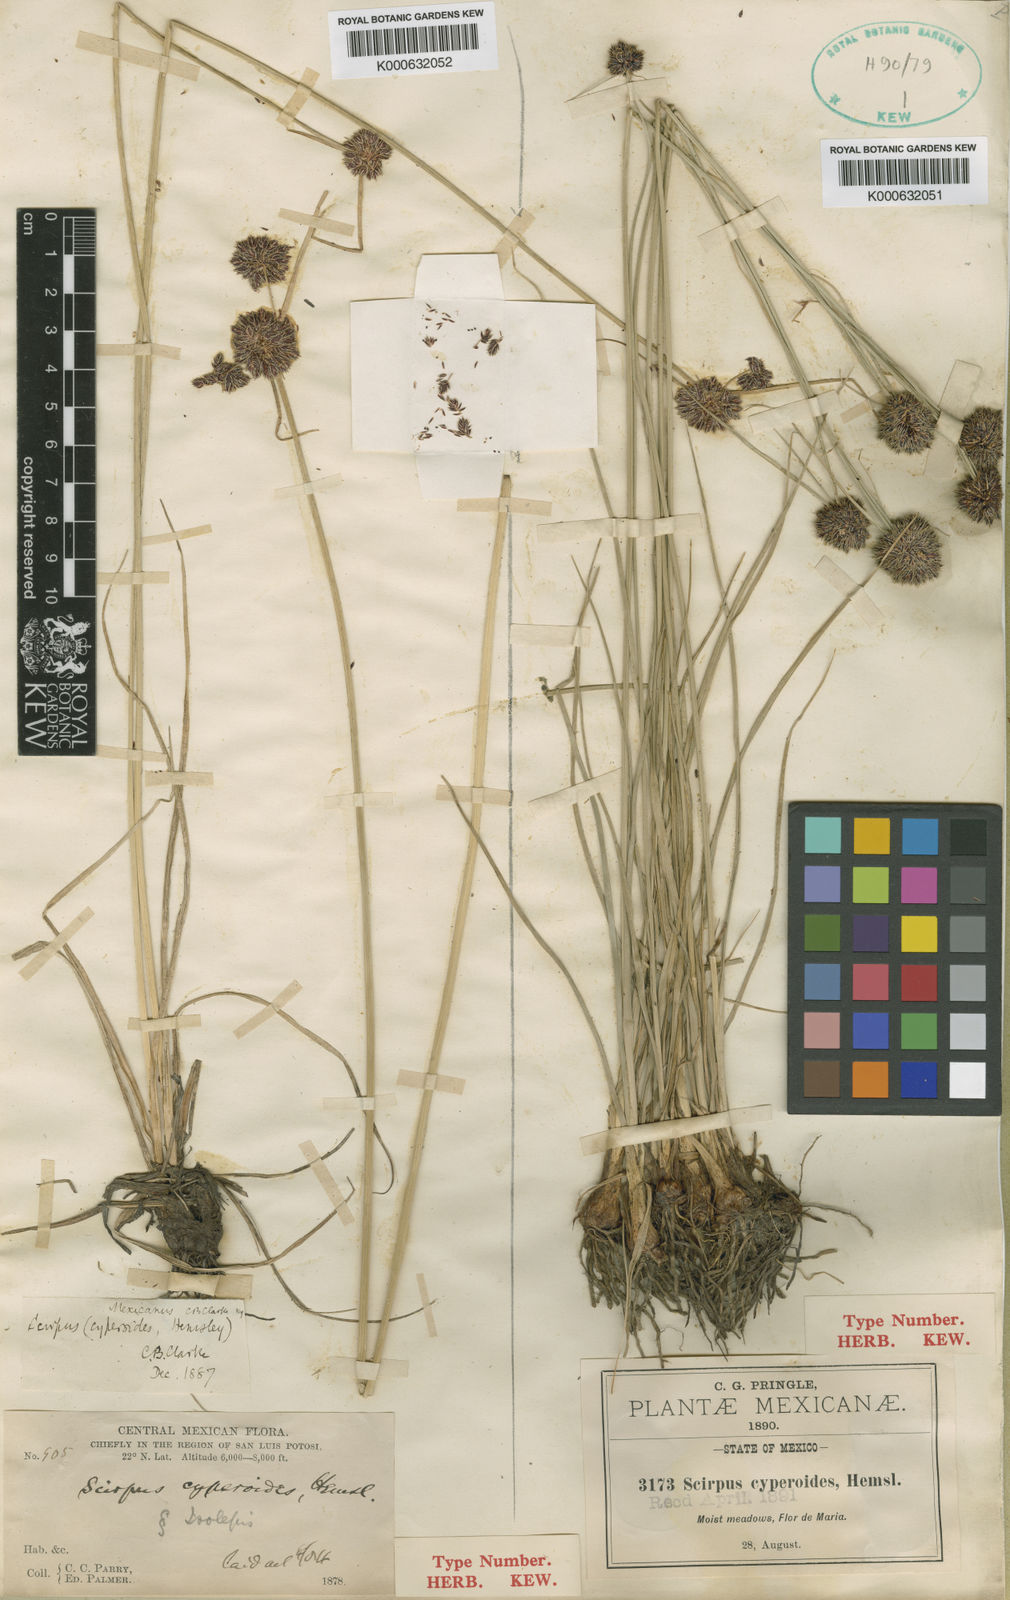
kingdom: Plantae
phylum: Tracheophyta
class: Liliopsida
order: Poales
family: Cyperaceae
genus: Cyperus
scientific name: Cyperus
